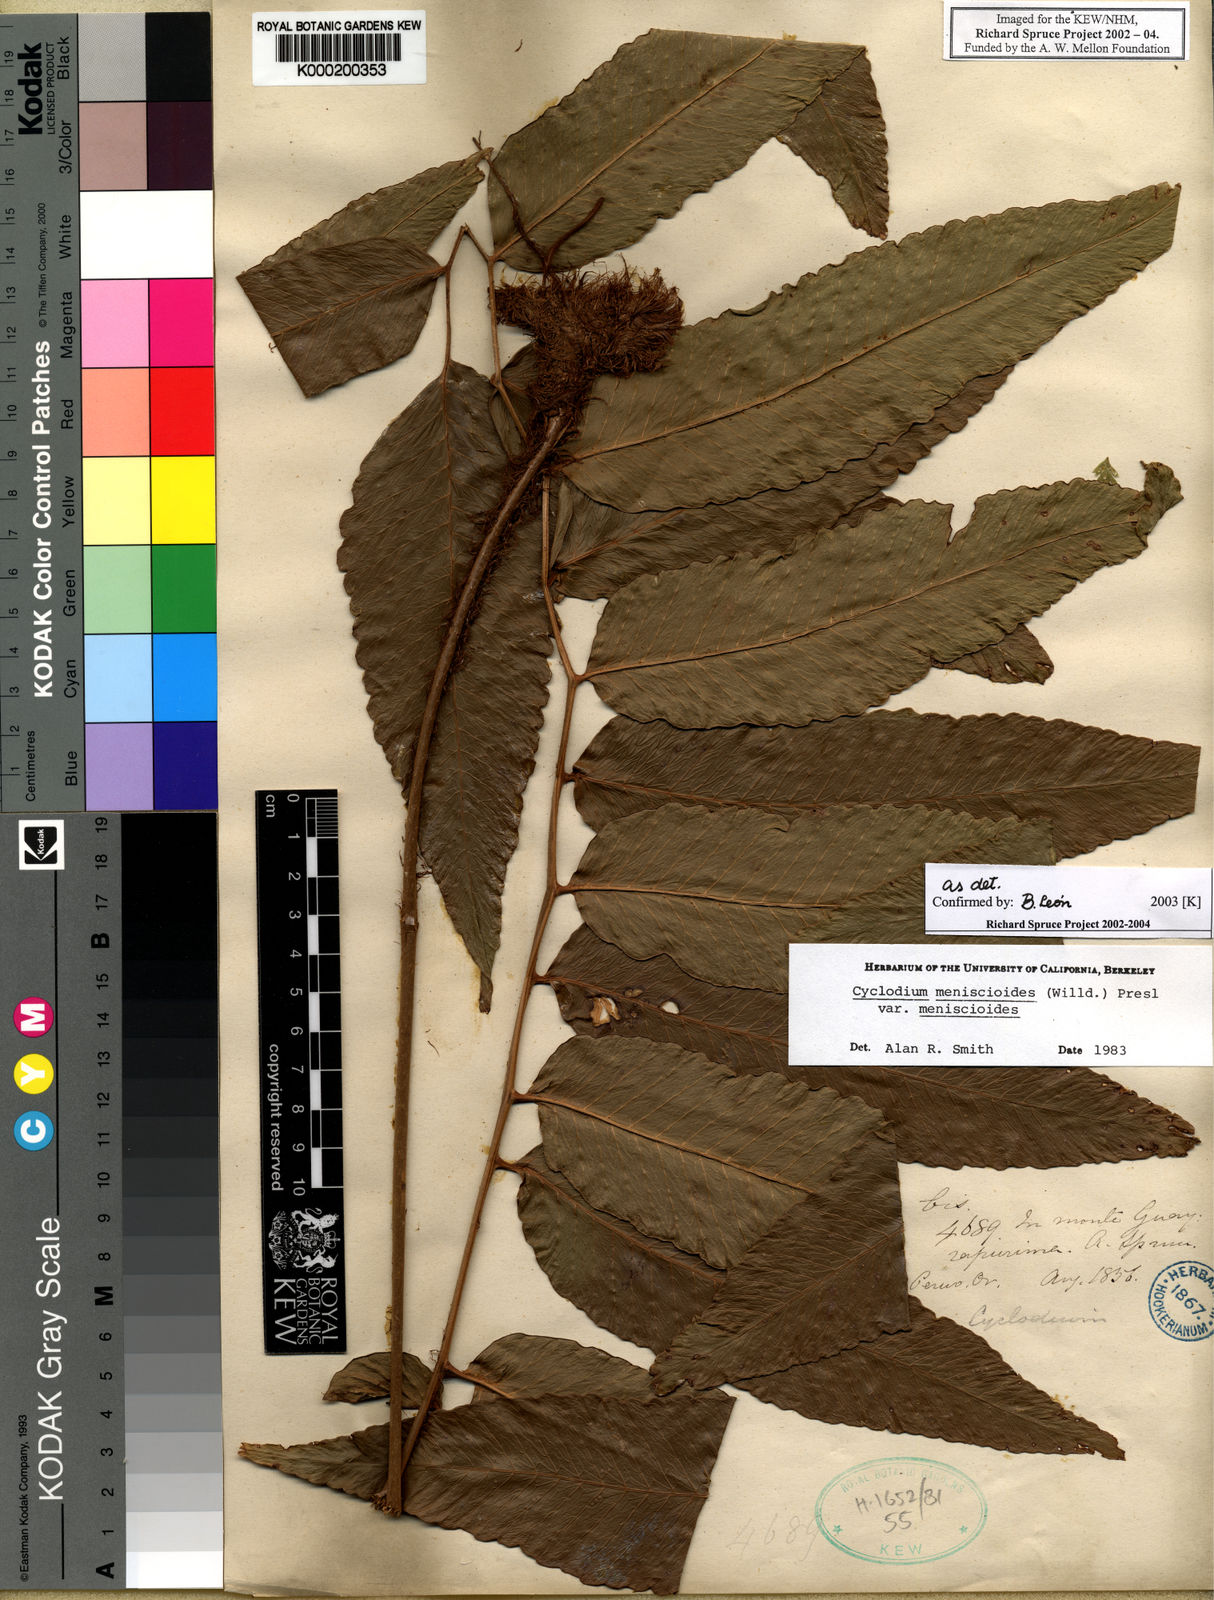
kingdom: Plantae
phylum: Tracheophyta
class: Polypodiopsida
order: Polypodiales
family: Dryopteridaceae
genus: Cyclodium
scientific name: Cyclodium meniscioides
